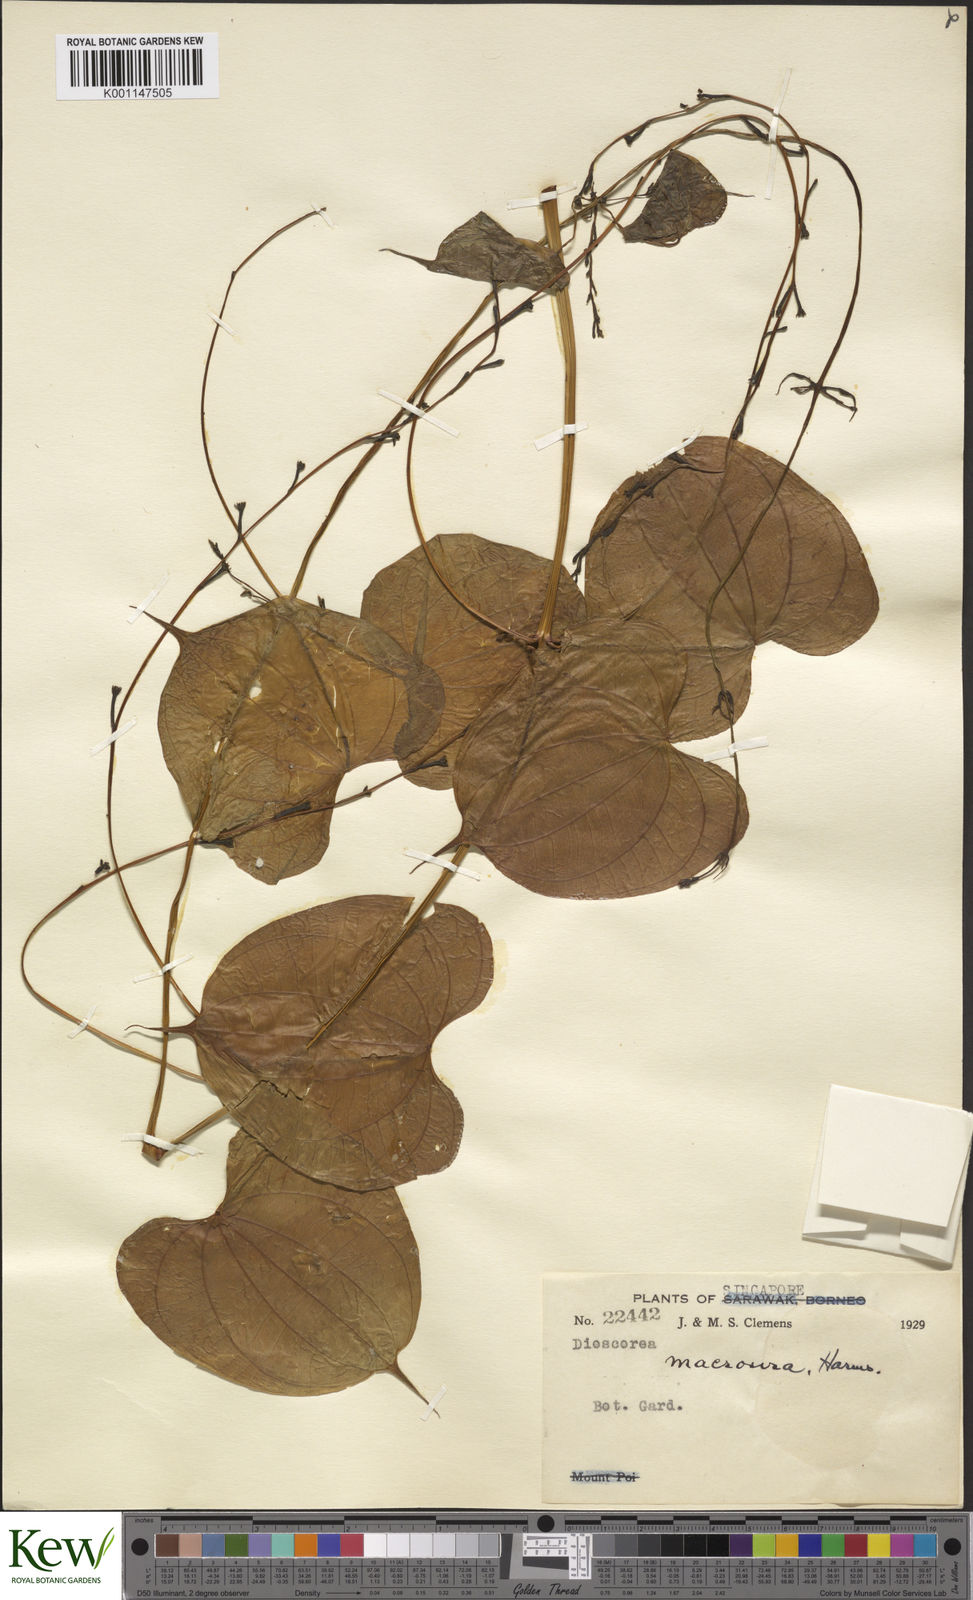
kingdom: Plantae
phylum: Tracheophyta
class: Liliopsida
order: Dioscoreales
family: Dioscoreaceae
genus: Dioscorea
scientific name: Dioscorea sansibarensis
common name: Zanzibar yam
